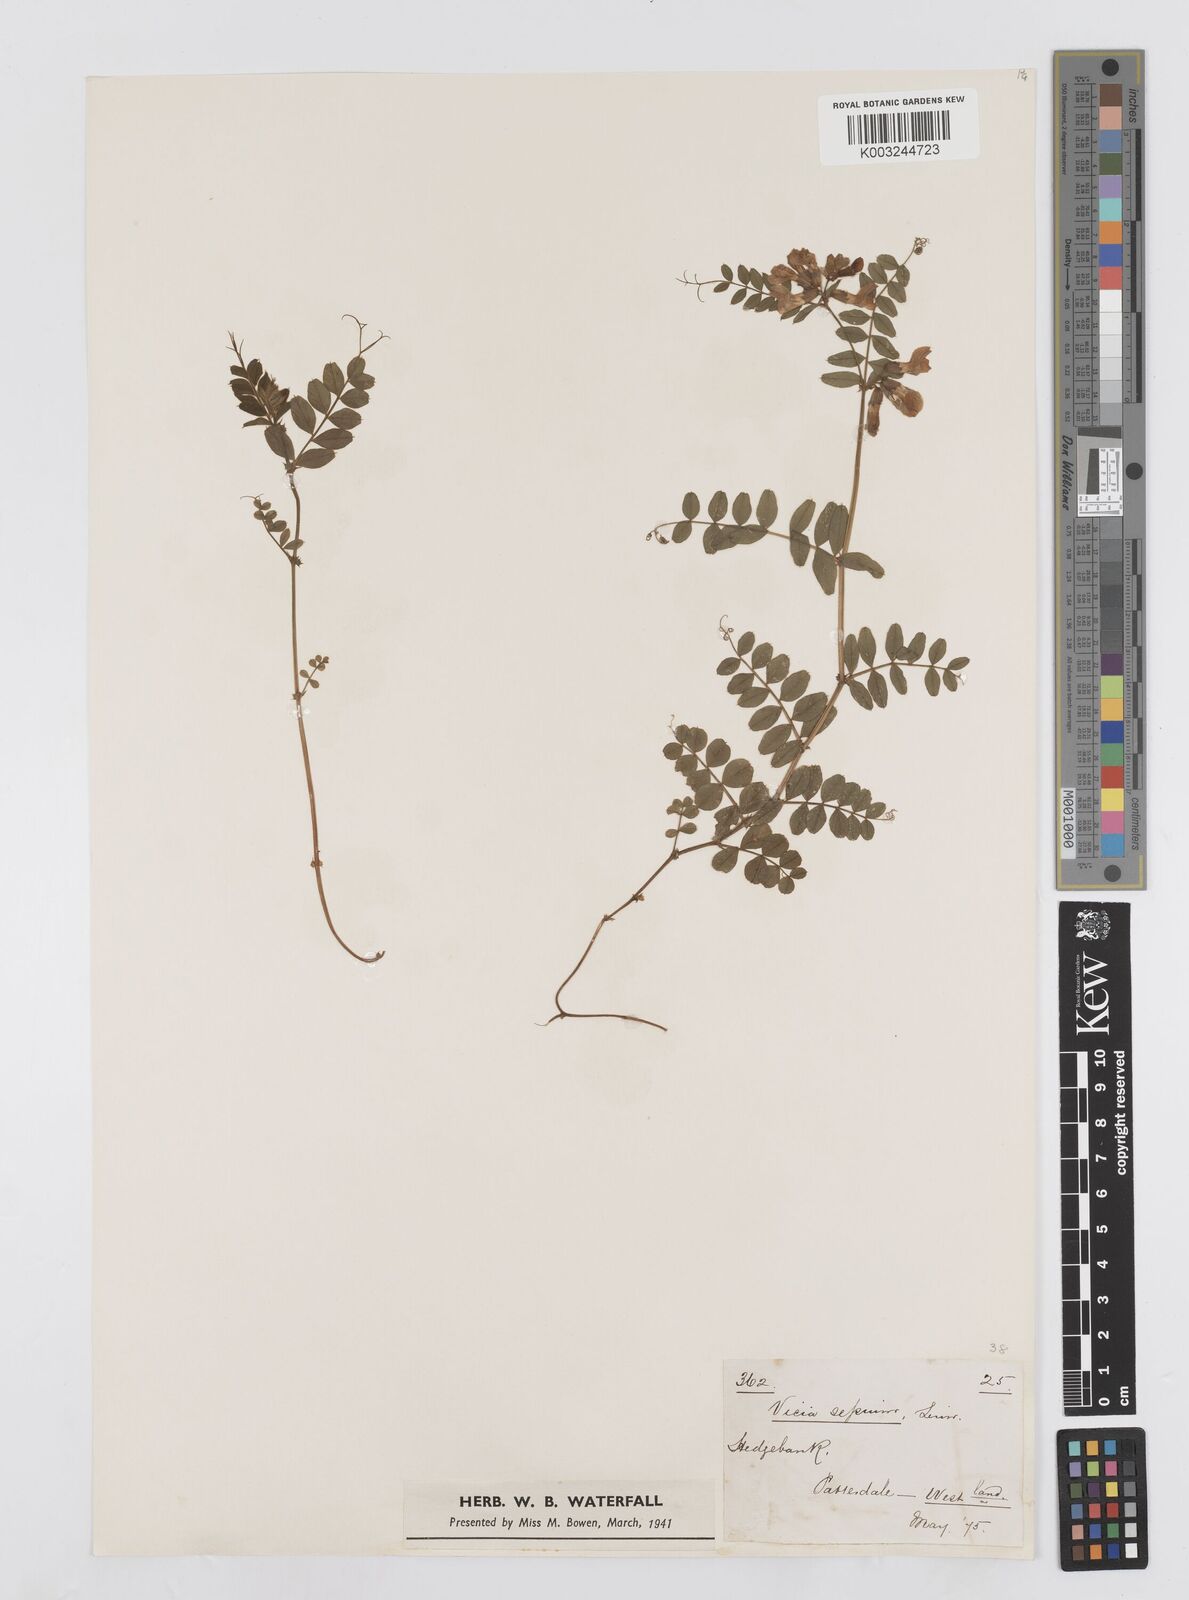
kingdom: Plantae
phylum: Tracheophyta
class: Magnoliopsida
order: Fabales
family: Fabaceae
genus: Vicia
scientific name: Vicia sepium
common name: Bush vetch
